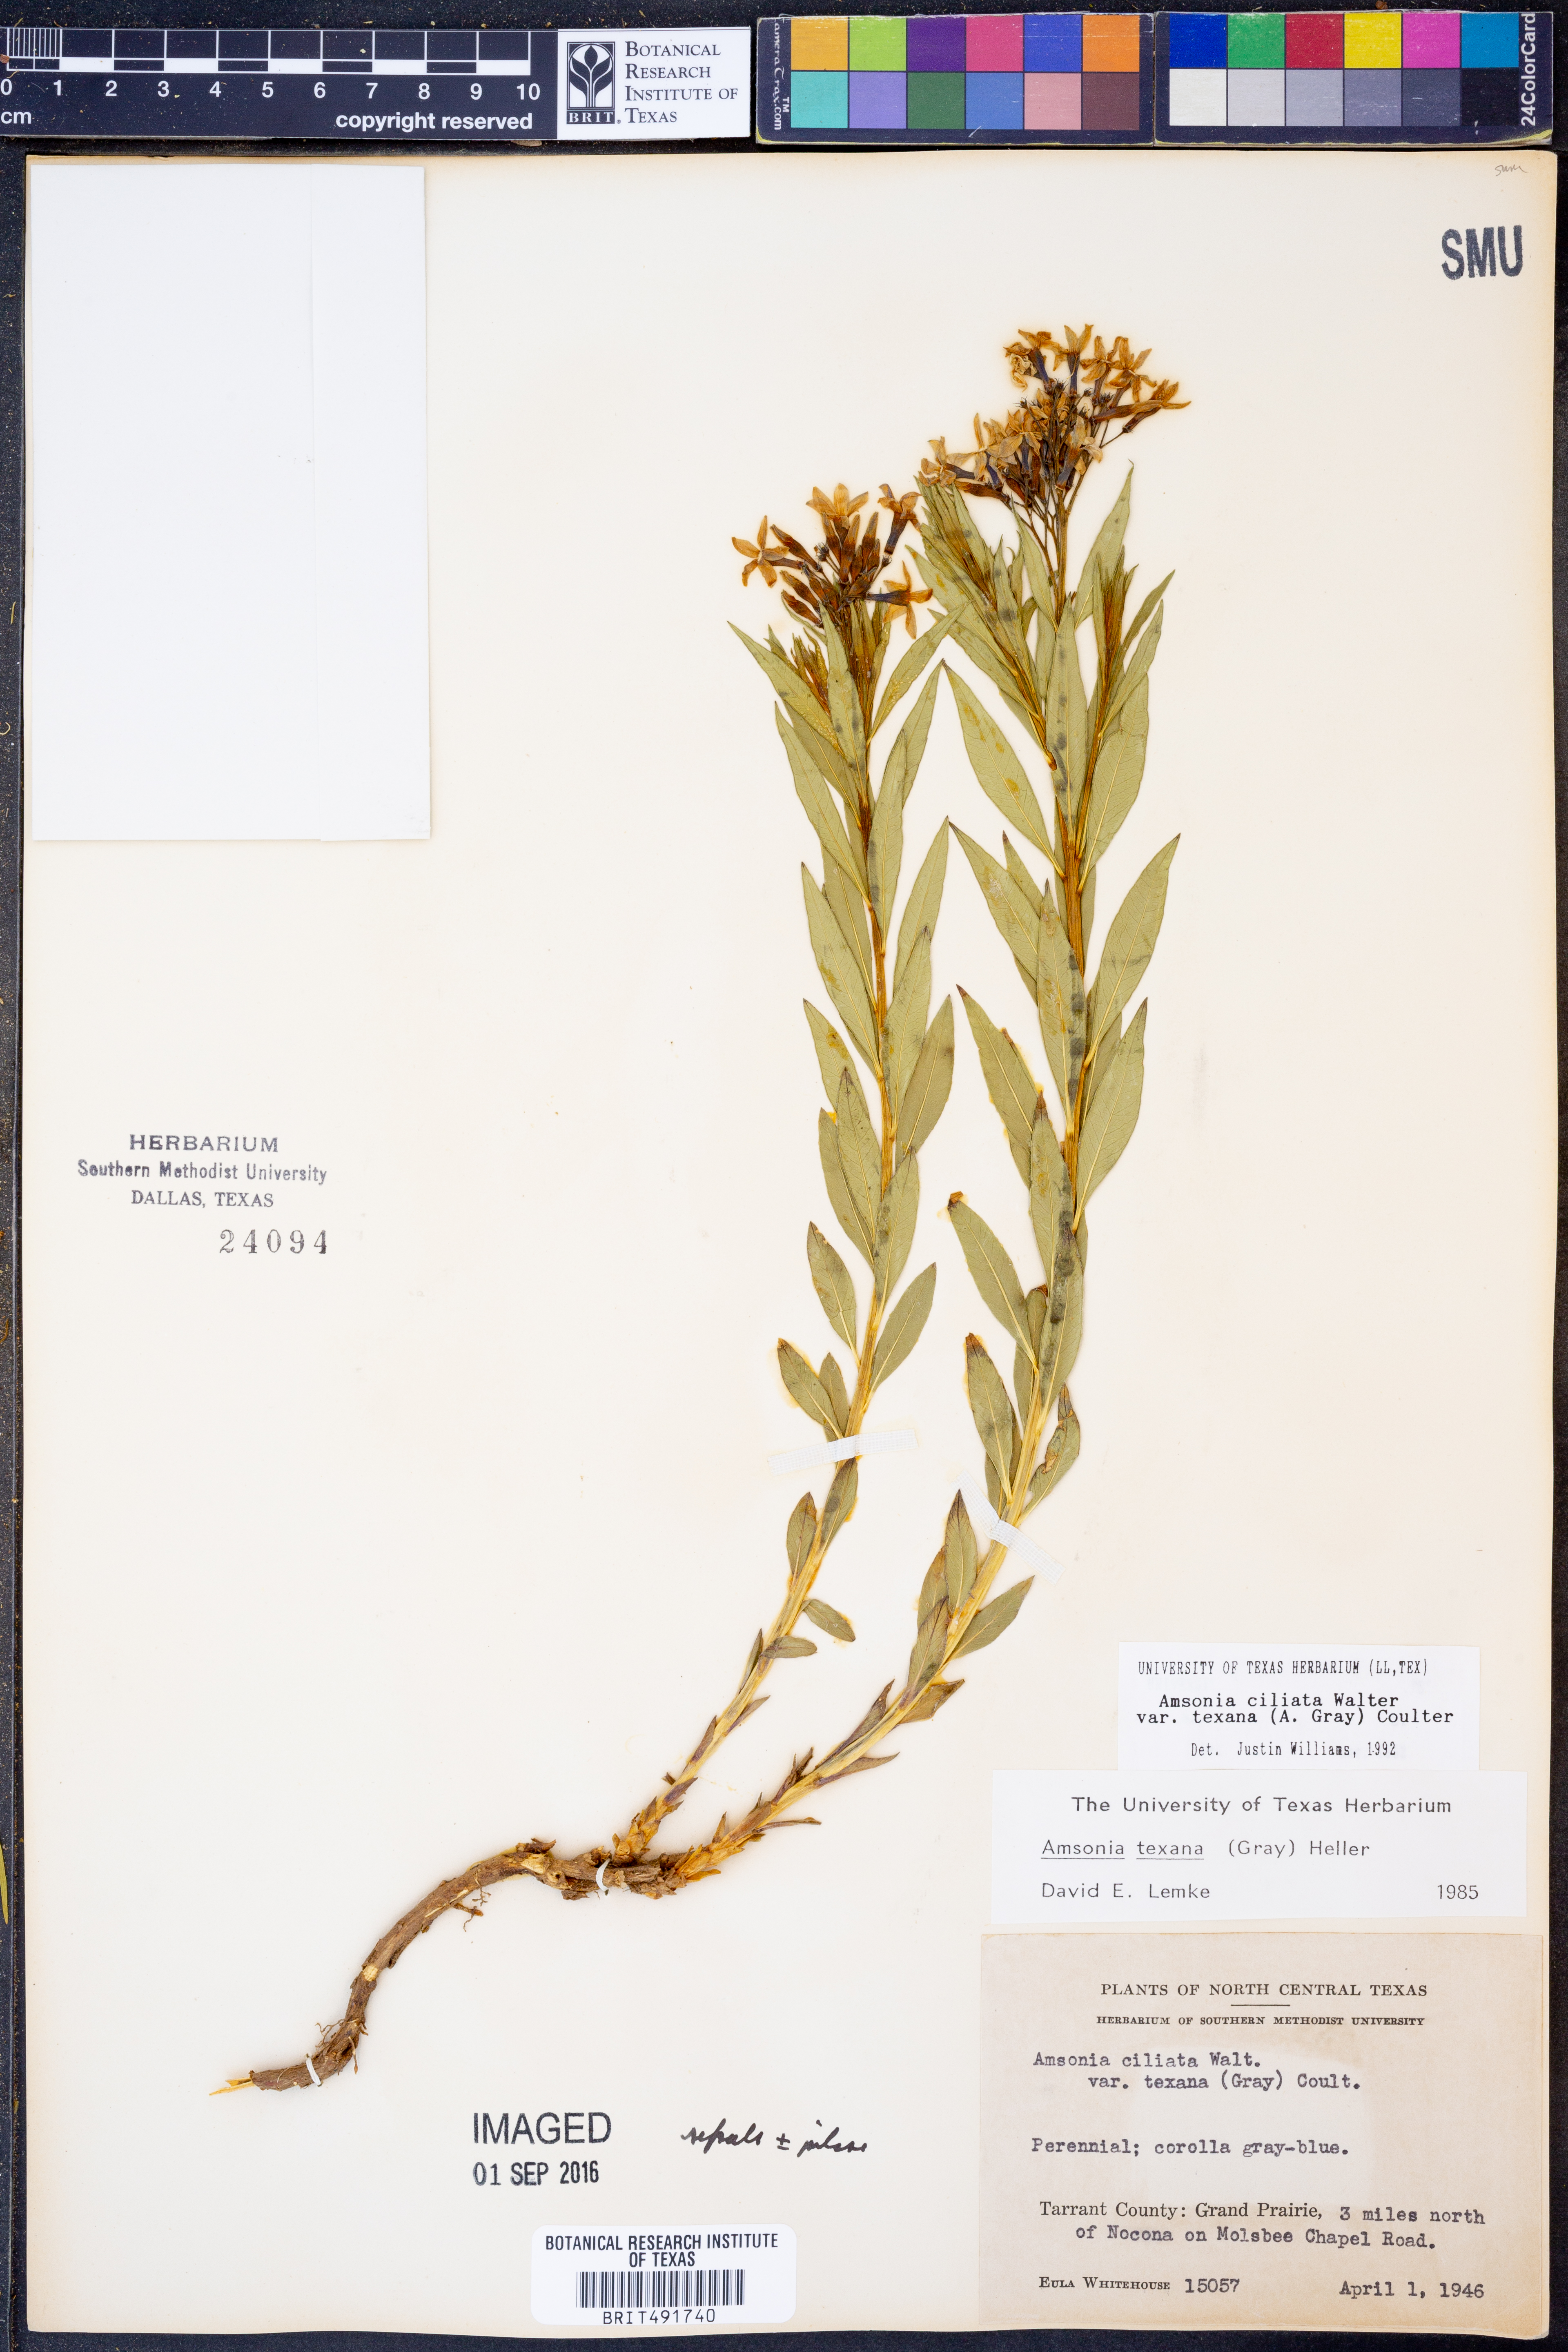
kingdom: Plantae
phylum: Tracheophyta
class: Magnoliopsida
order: Gentianales
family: Apocynaceae
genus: Amsonia
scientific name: Amsonia ciliata
